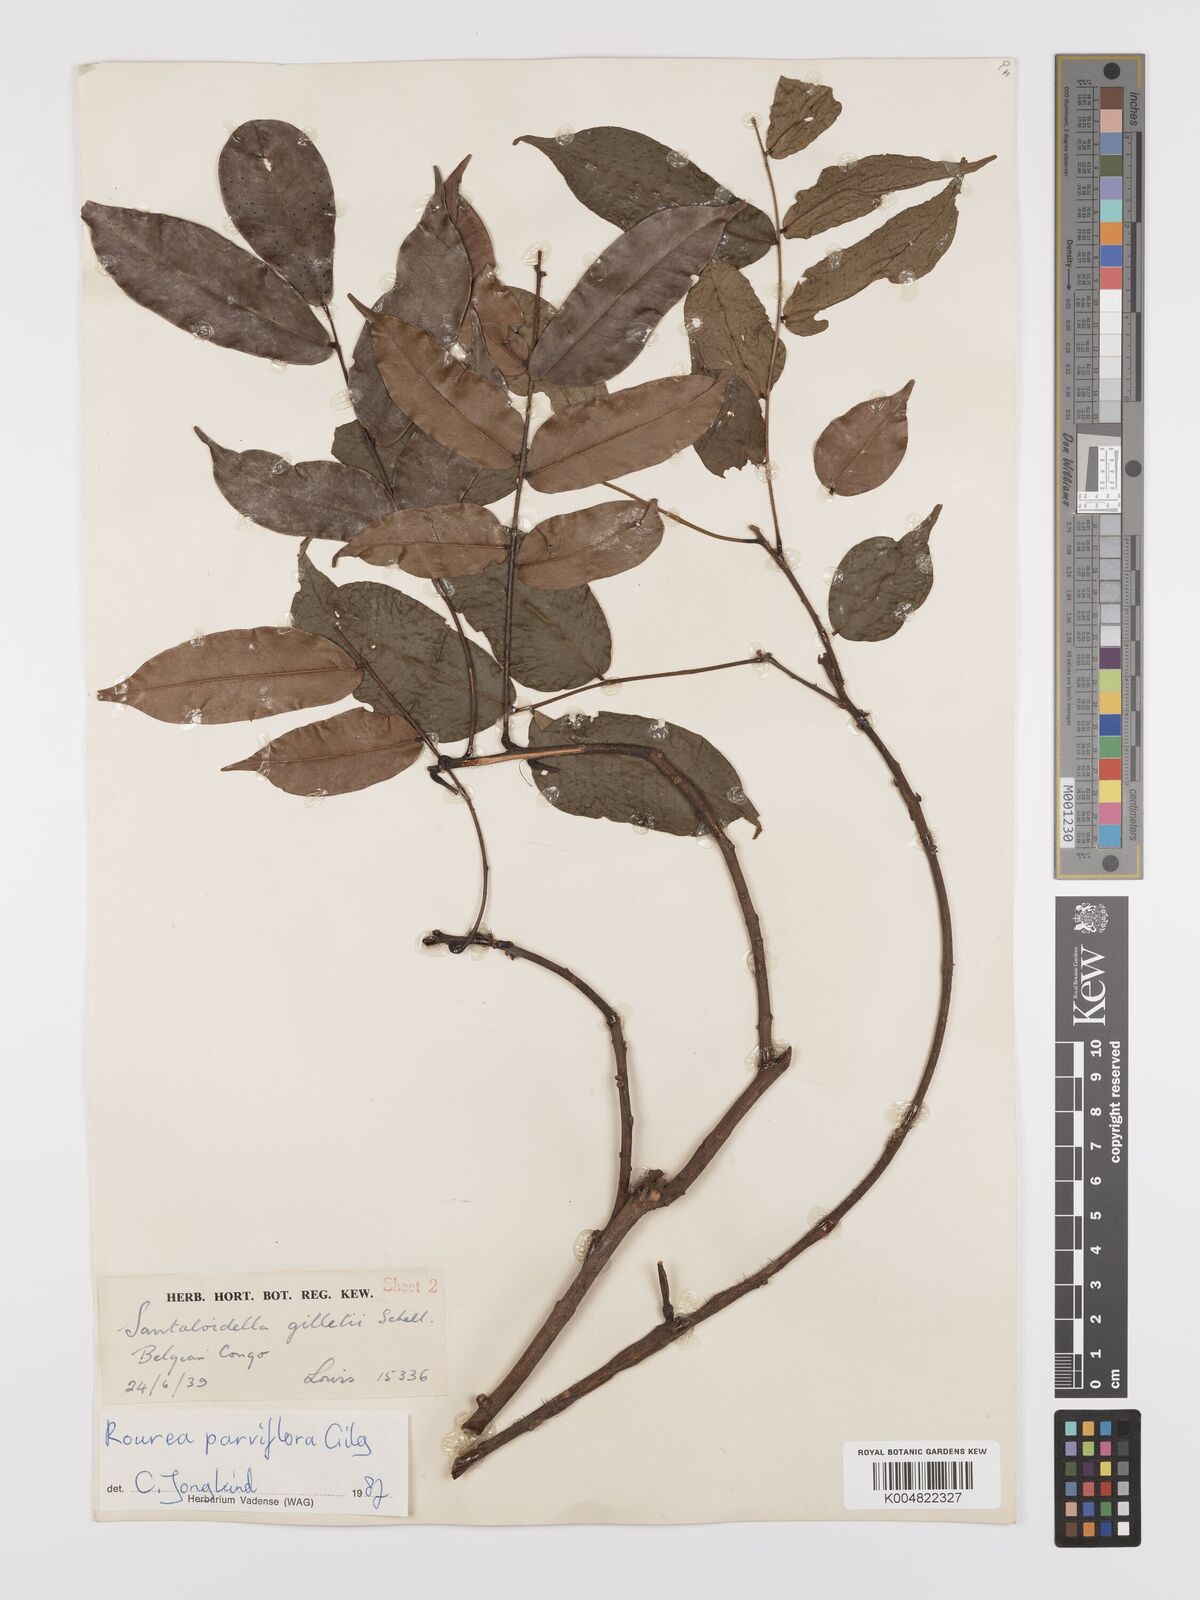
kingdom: Plantae
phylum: Tracheophyta
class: Magnoliopsida
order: Oxalidales
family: Connaraceae
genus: Rourea
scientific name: Rourea
